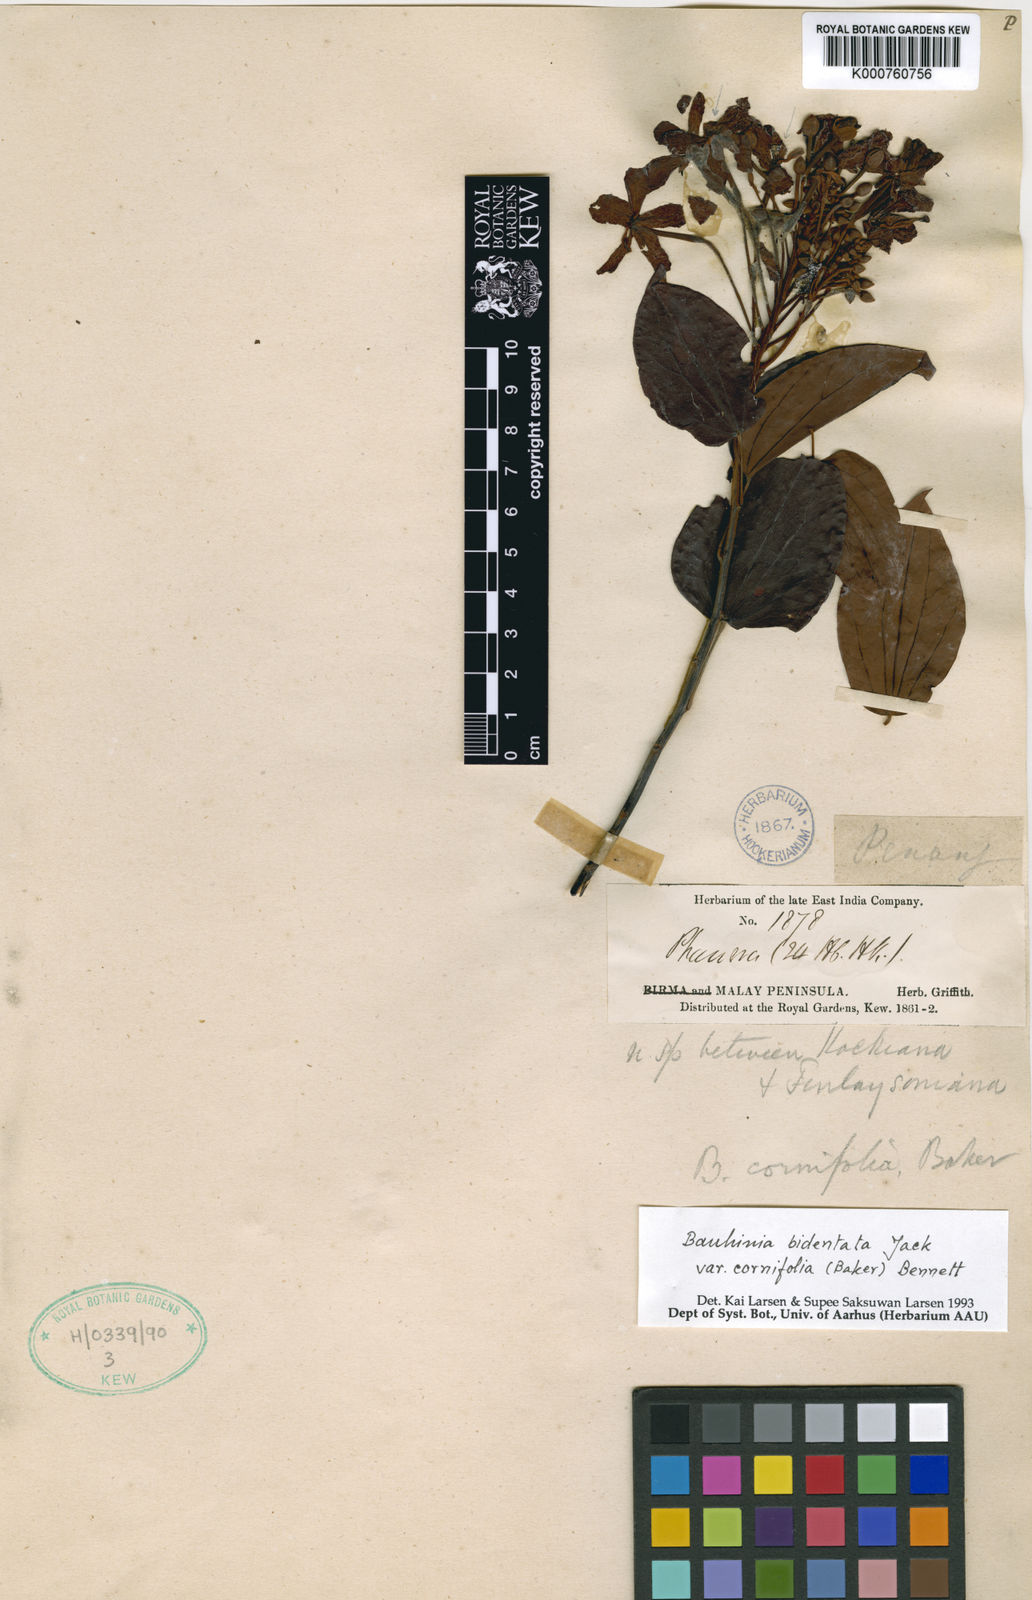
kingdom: Plantae
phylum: Tracheophyta
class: Magnoliopsida
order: Fabales
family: Fabaceae
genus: Phanera
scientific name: Phanera bidentata
